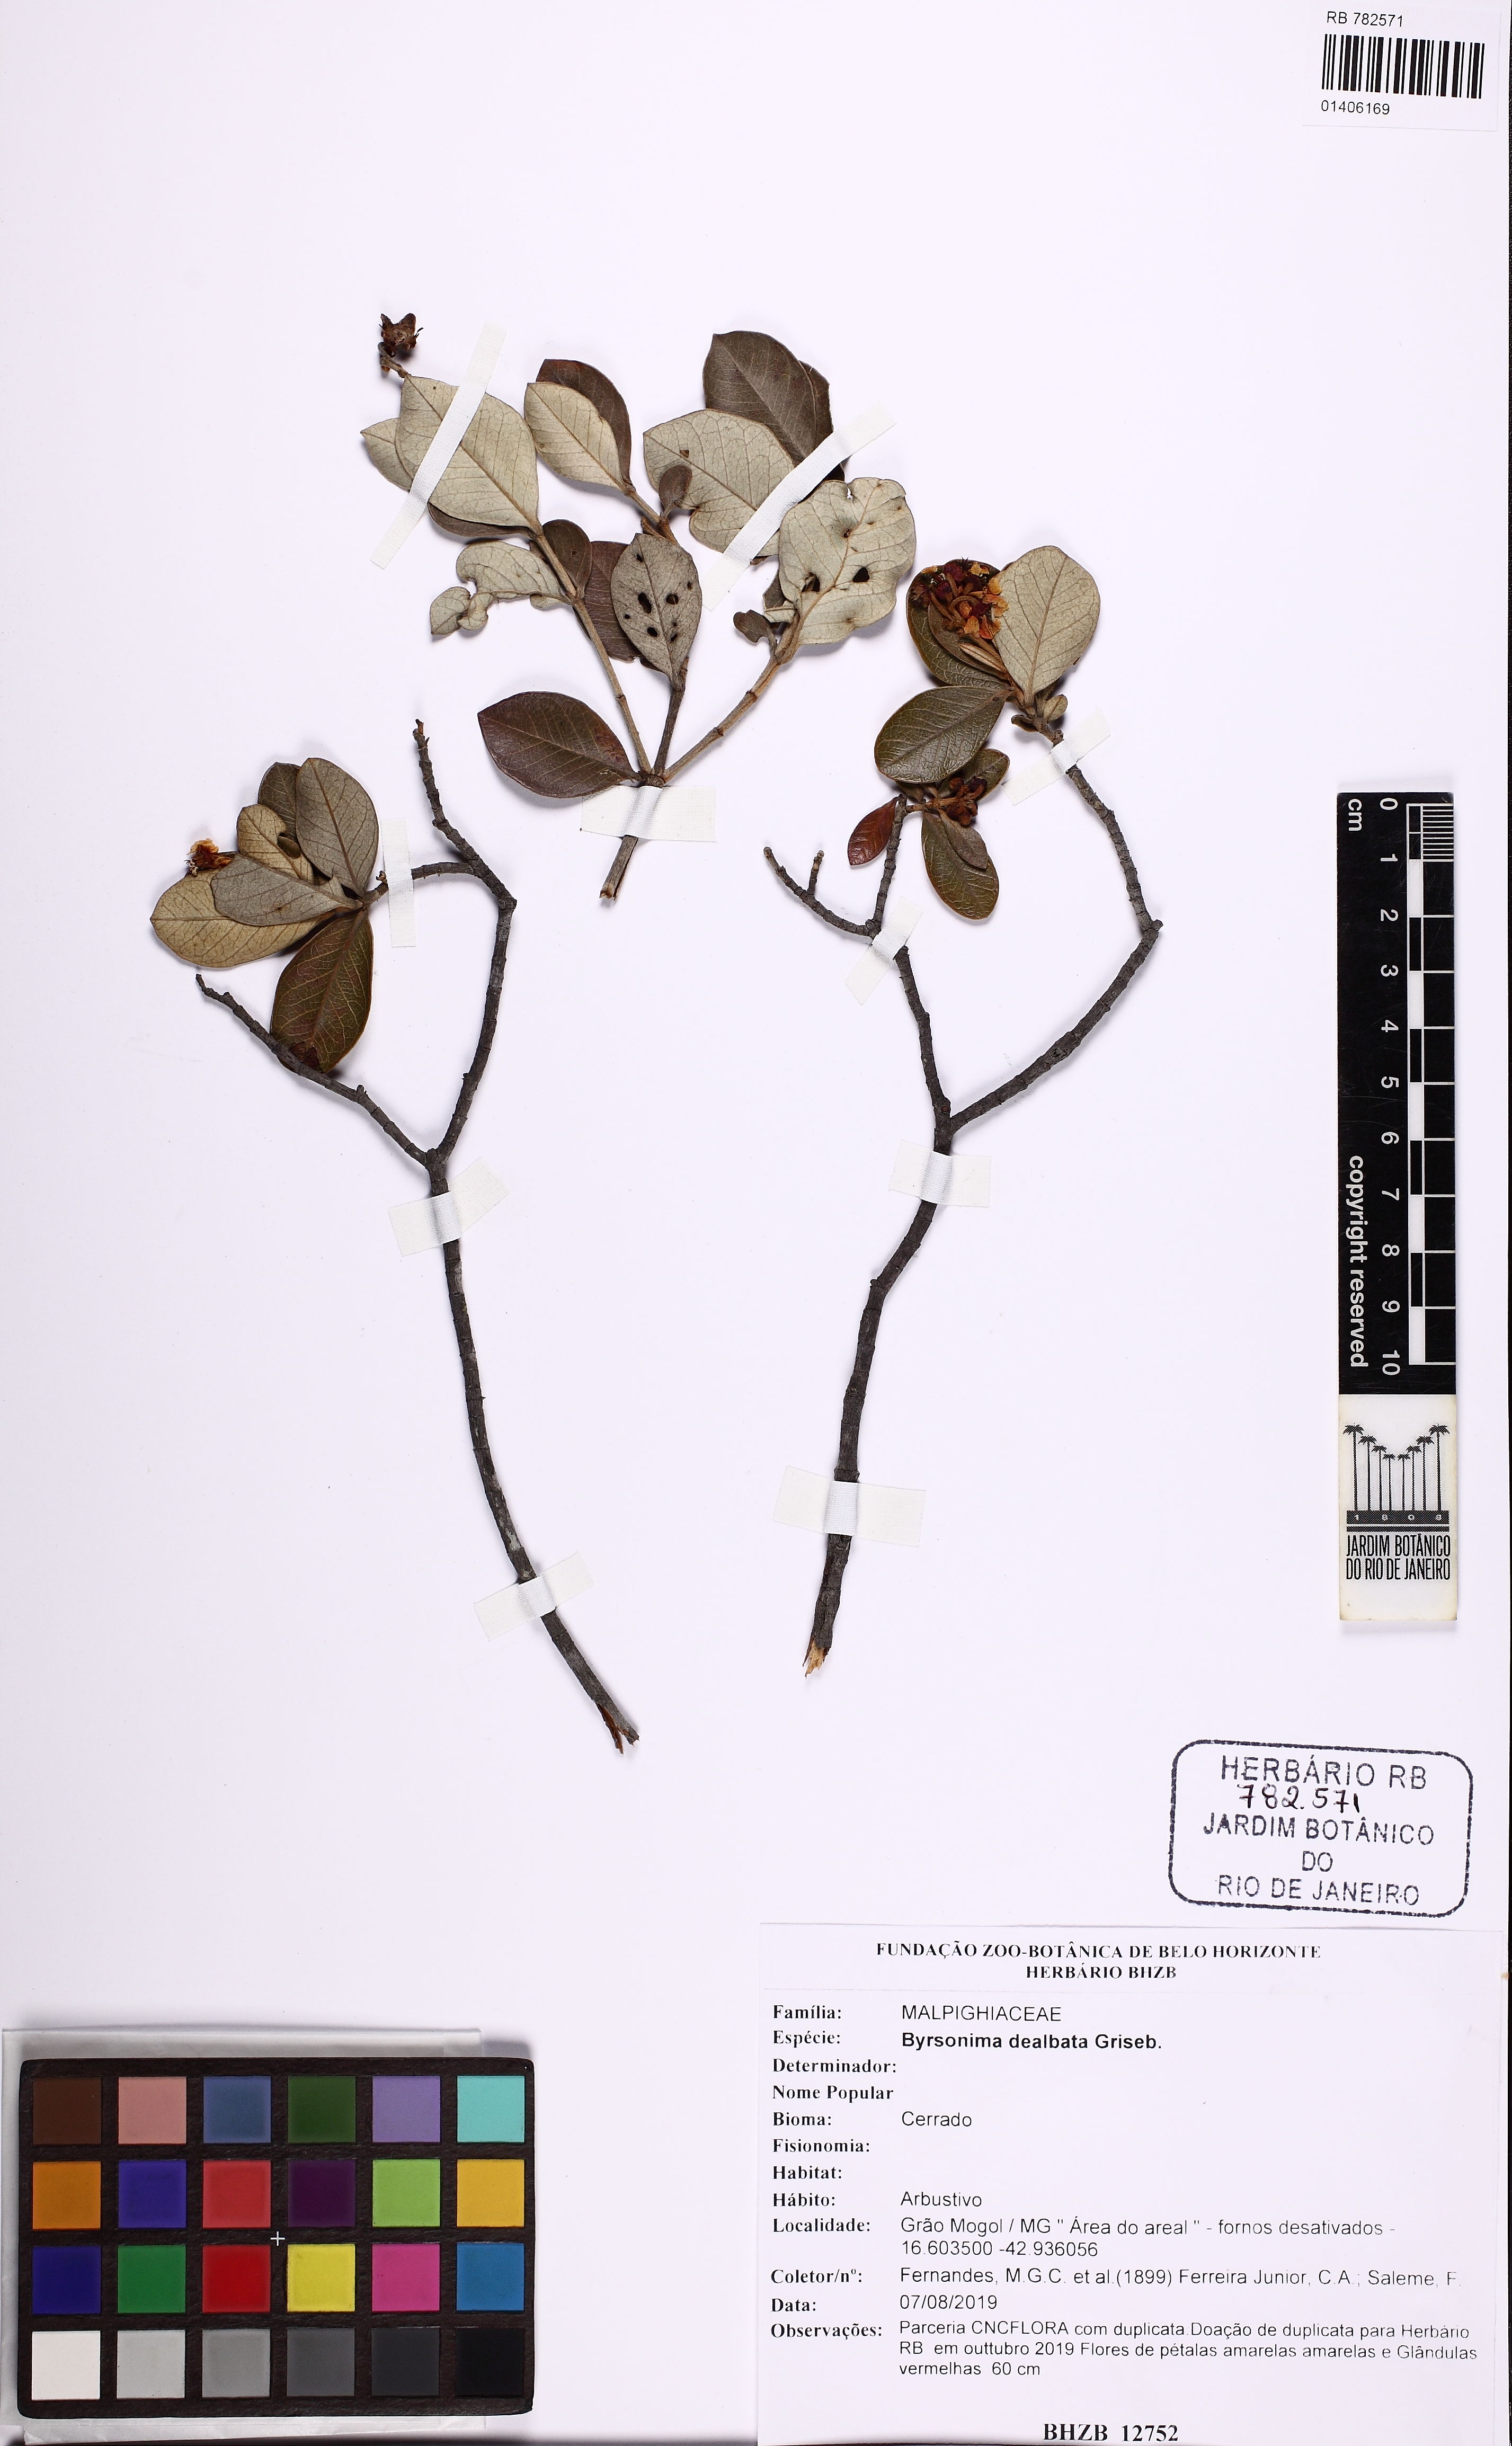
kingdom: Plantae
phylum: Tracheophyta
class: Magnoliopsida
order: Malpighiales
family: Malpighiaceae
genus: Byrsonima
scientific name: Byrsonima dealbata
